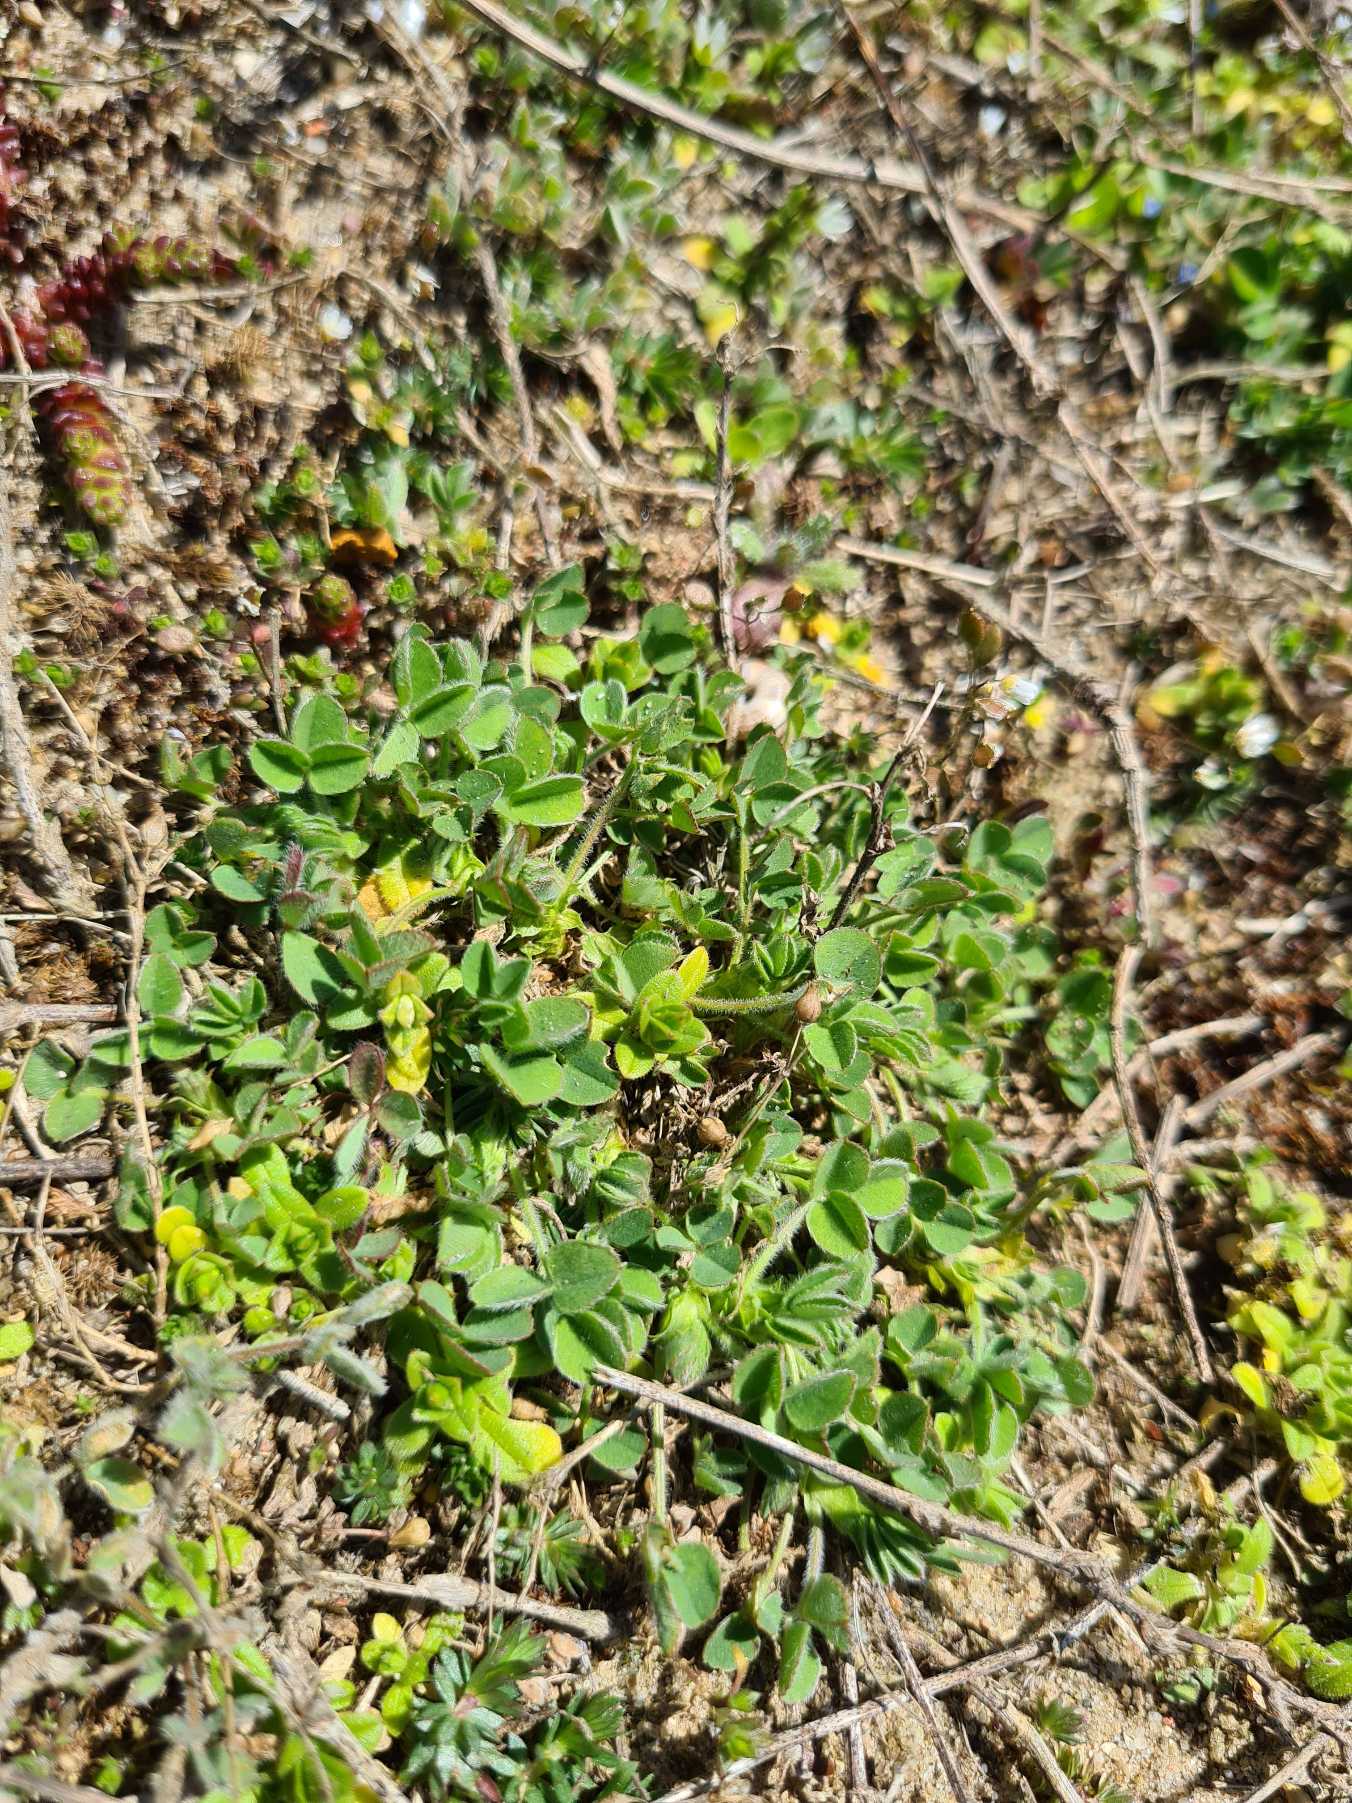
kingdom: Plantae
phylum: Tracheophyta
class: Magnoliopsida
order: Fabales
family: Fabaceae
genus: Medicago
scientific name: Medicago minima
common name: Liden sneglebælg
